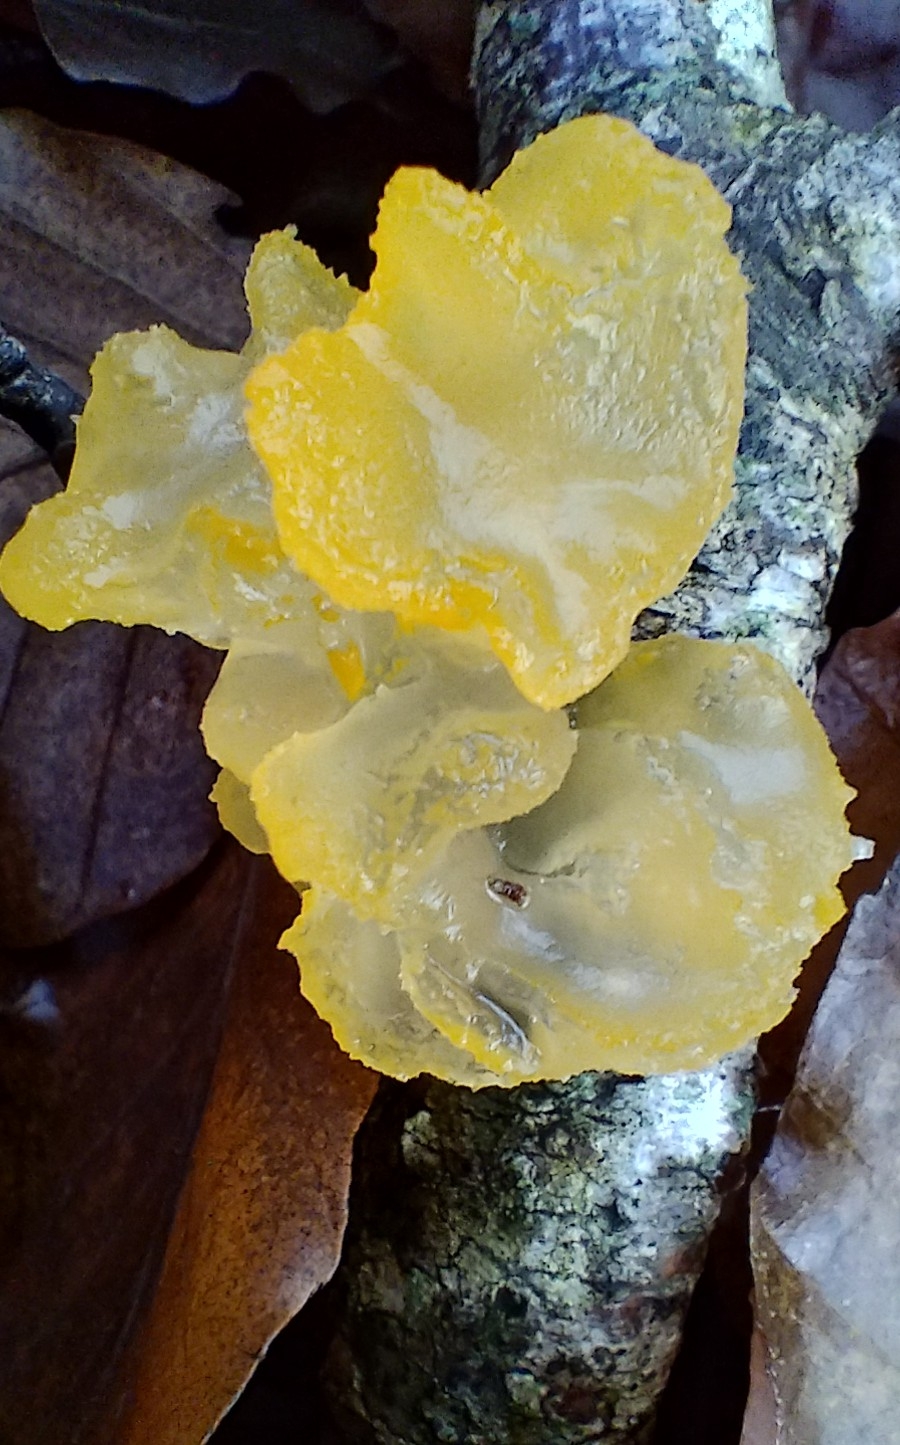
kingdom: Fungi
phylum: Basidiomycota
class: Tremellomycetes
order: Tremellales
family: Tremellaceae
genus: Tremella
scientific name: Tremella mesenterica
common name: gul bævresvamp
